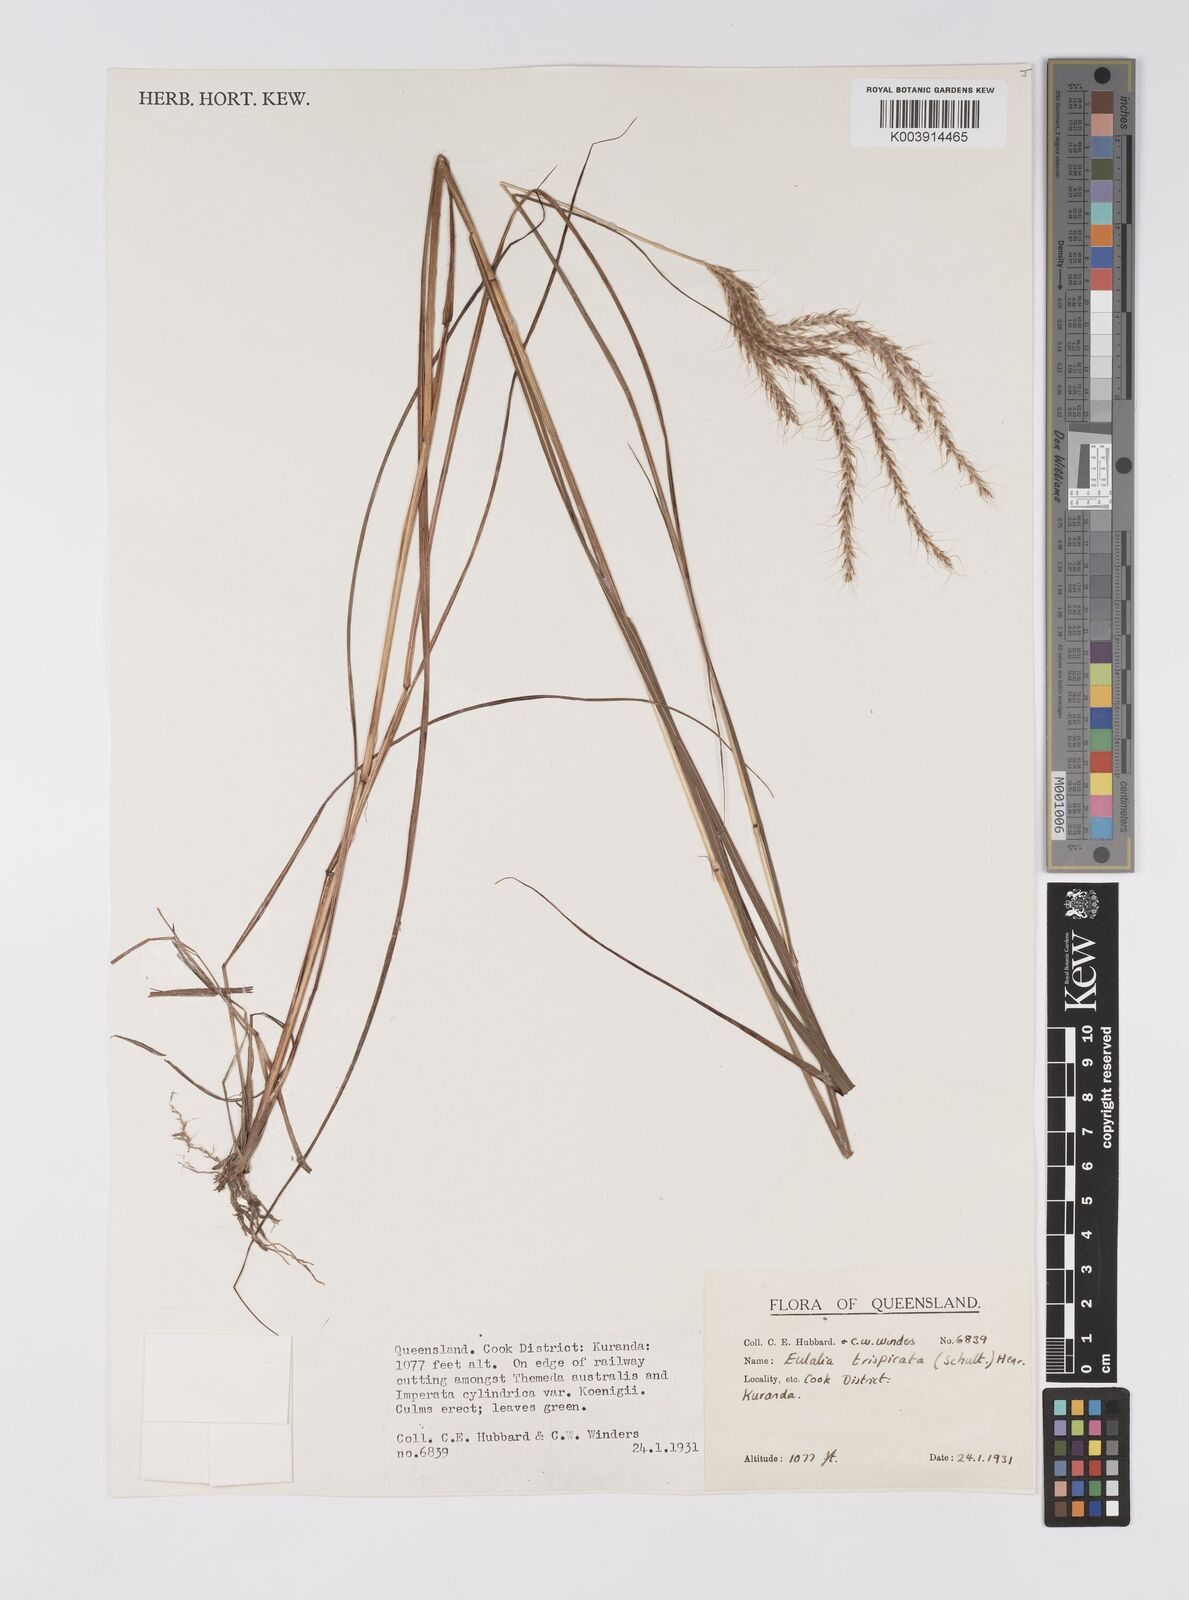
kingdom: Plantae
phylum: Tracheophyta
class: Liliopsida
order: Poales
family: Poaceae
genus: Pseudopogonatherum
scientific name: Pseudopogonatherum trispicatum
